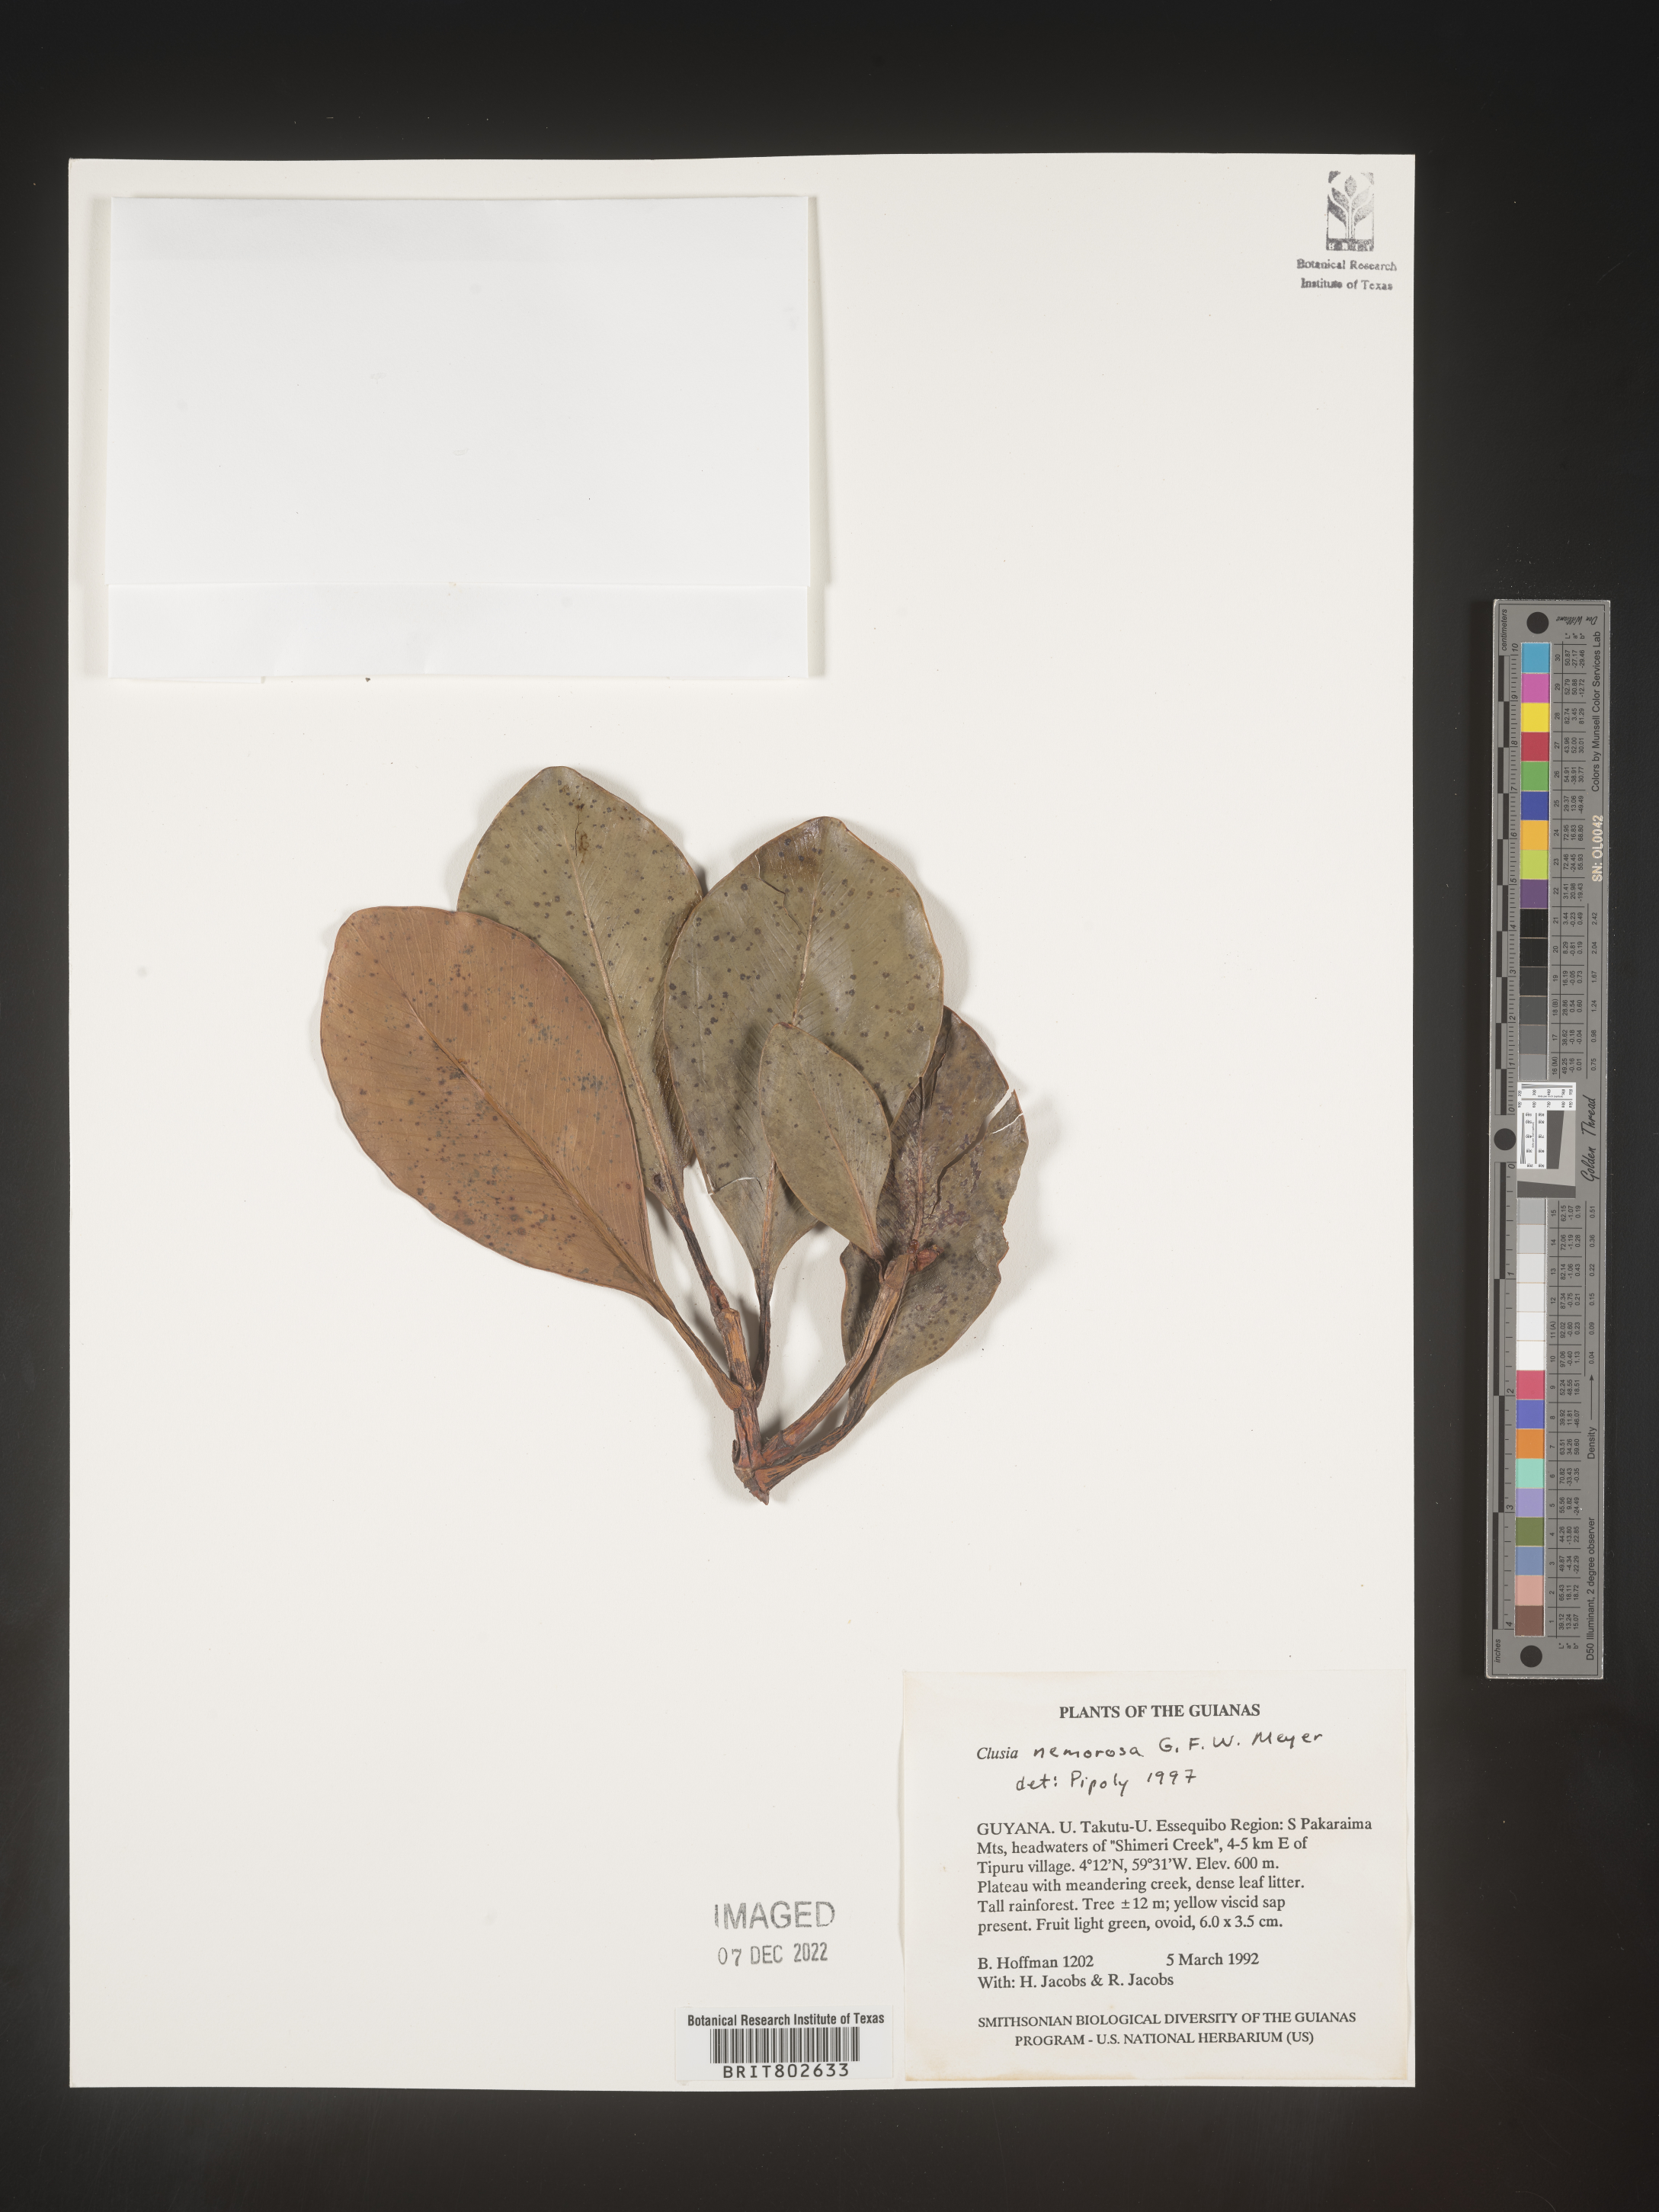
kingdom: Plantae
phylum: Tracheophyta
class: Magnoliopsida
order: Malpighiales
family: Clusiaceae
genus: Clusia
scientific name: Clusia nemorosa
